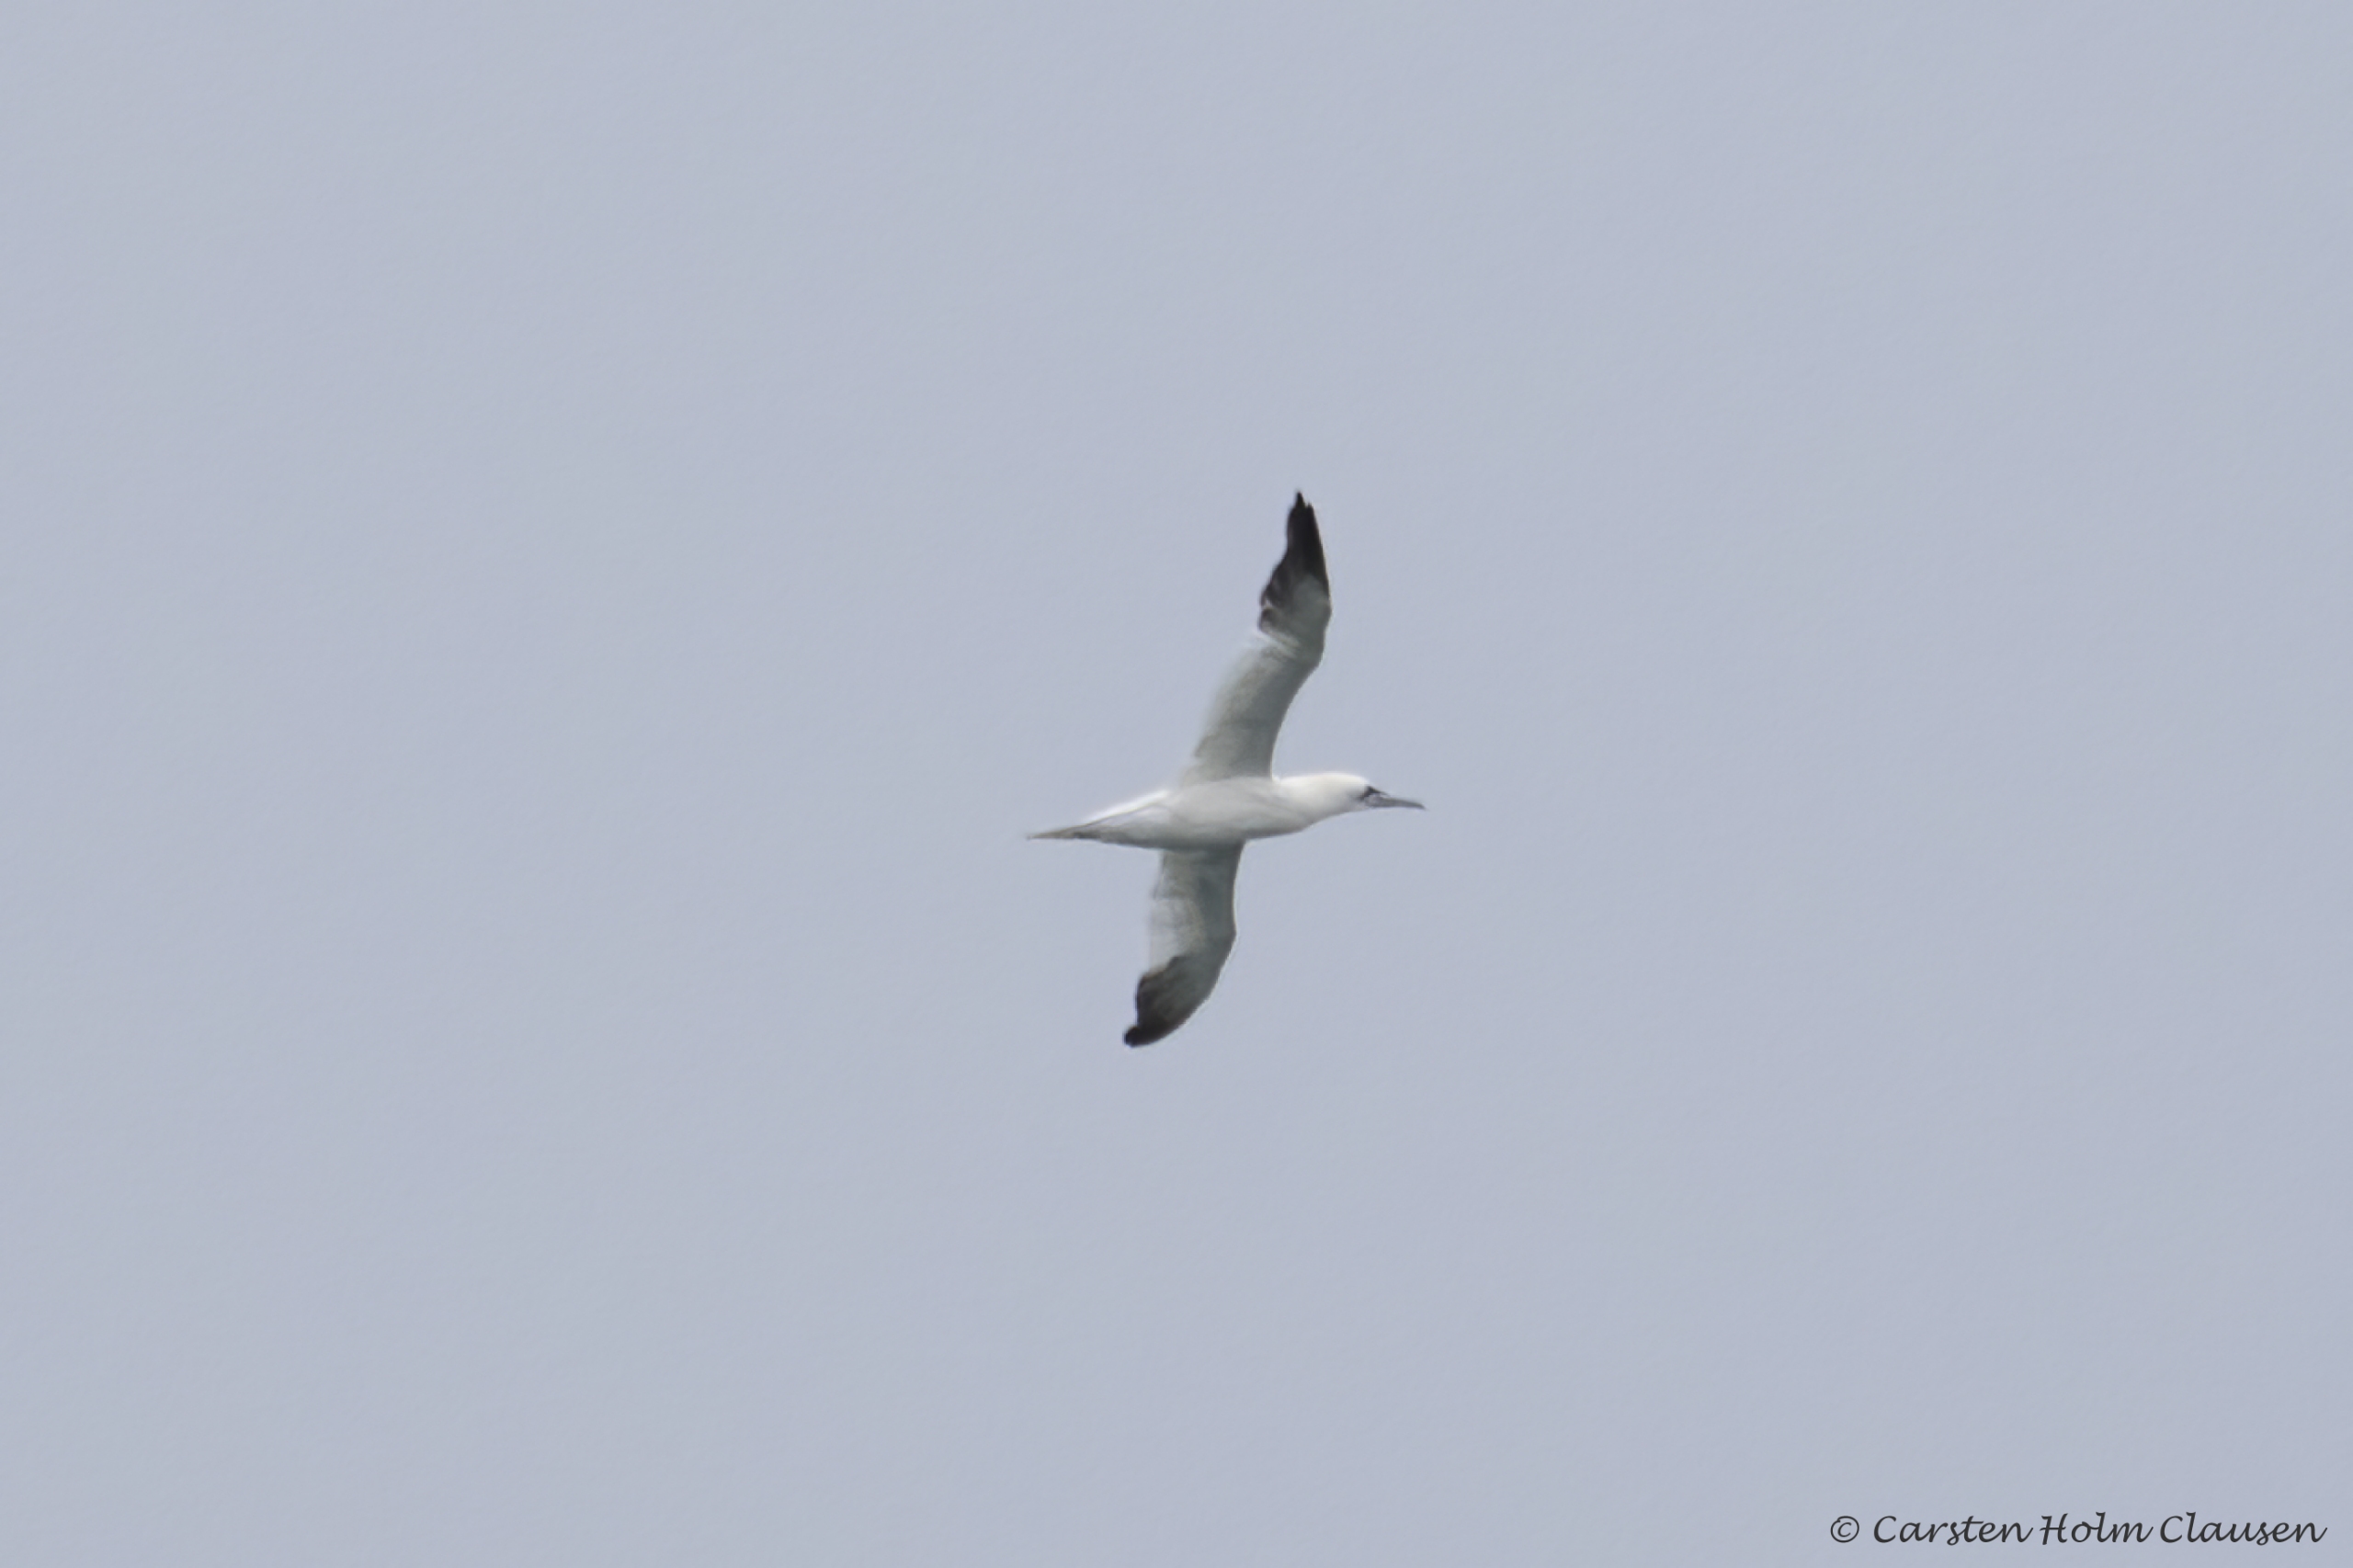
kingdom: Animalia
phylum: Chordata
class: Aves
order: Suliformes
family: Sulidae
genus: Morus
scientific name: Morus bassanus
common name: Sule
